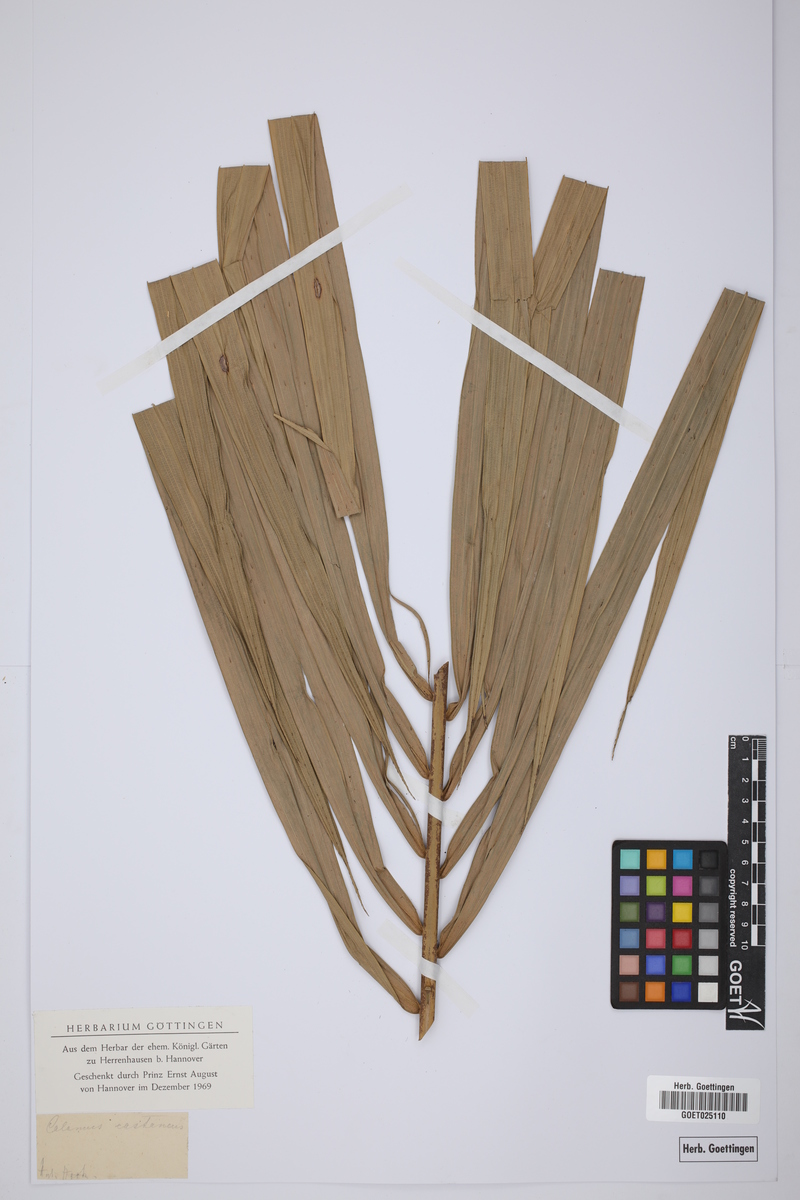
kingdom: Plantae
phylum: Tracheophyta
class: Liliopsida
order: Arecales
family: Arecaceae
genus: Calamus
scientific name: Calamus castaneus
